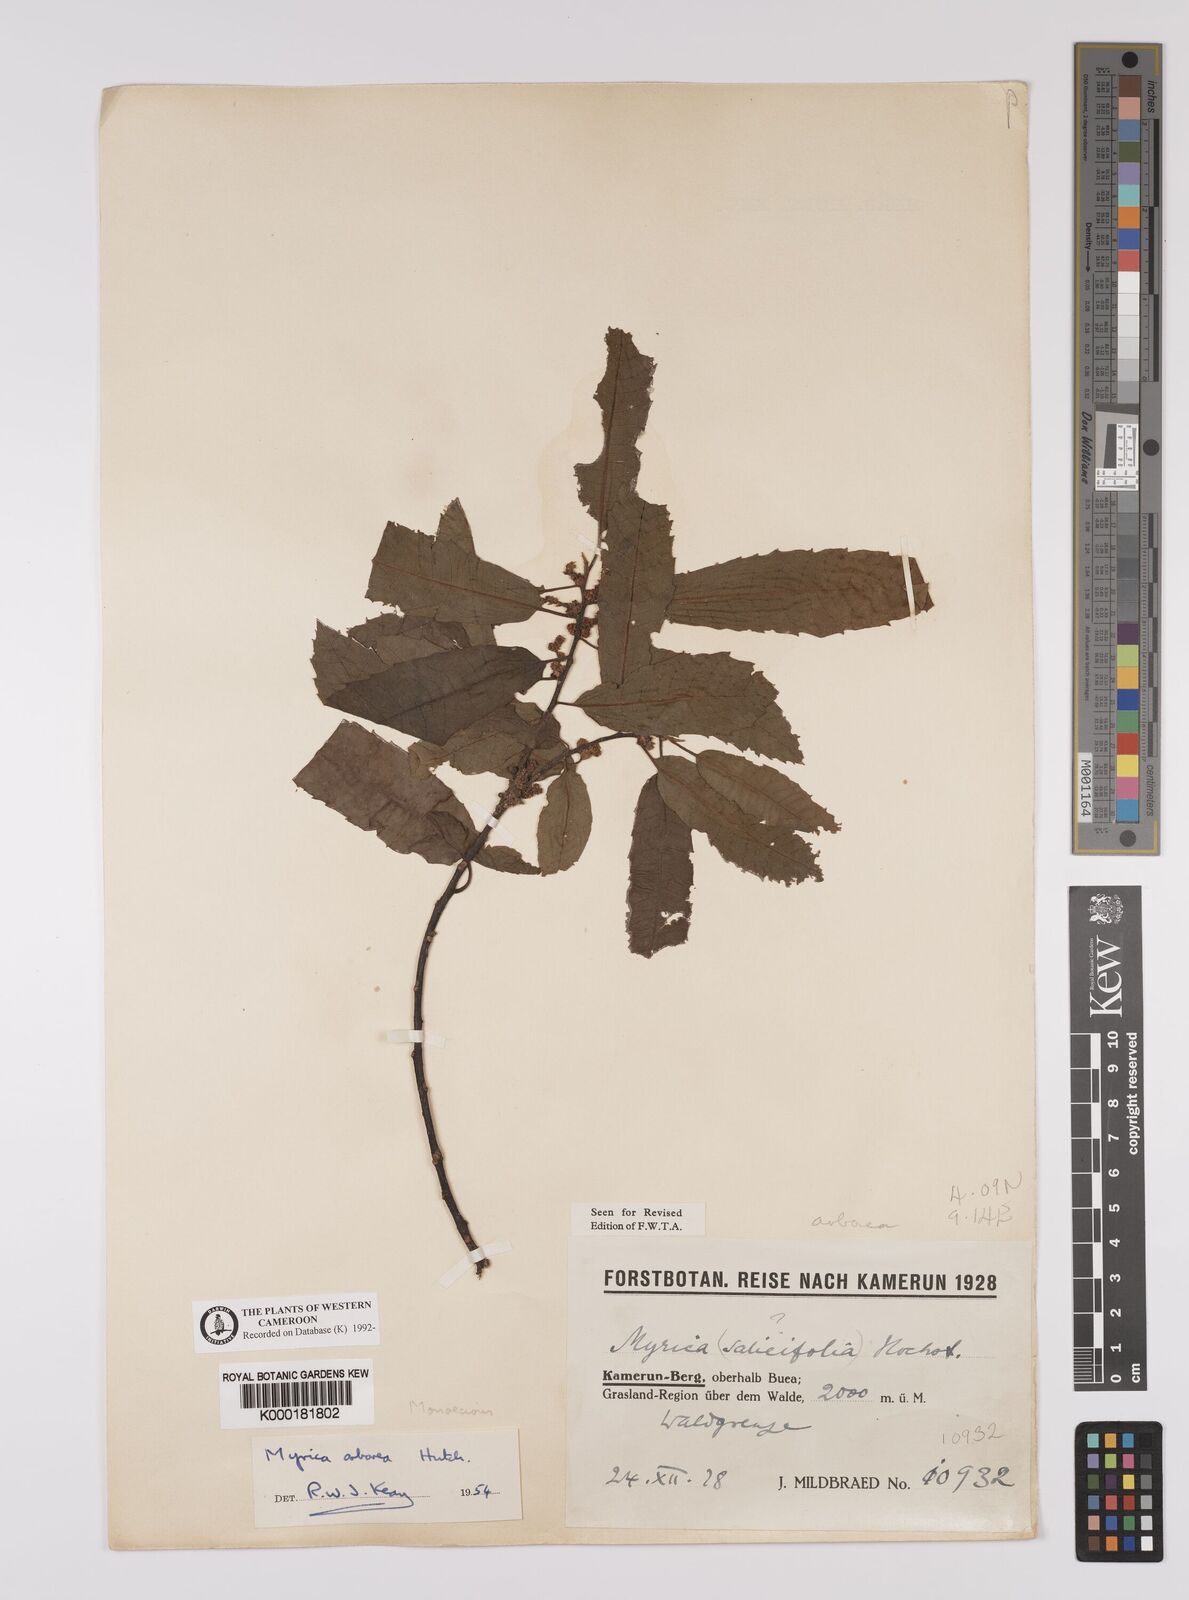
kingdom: Plantae
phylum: Tracheophyta
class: Magnoliopsida
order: Fagales
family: Myricaceae
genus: Morella
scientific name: Morella arborea
